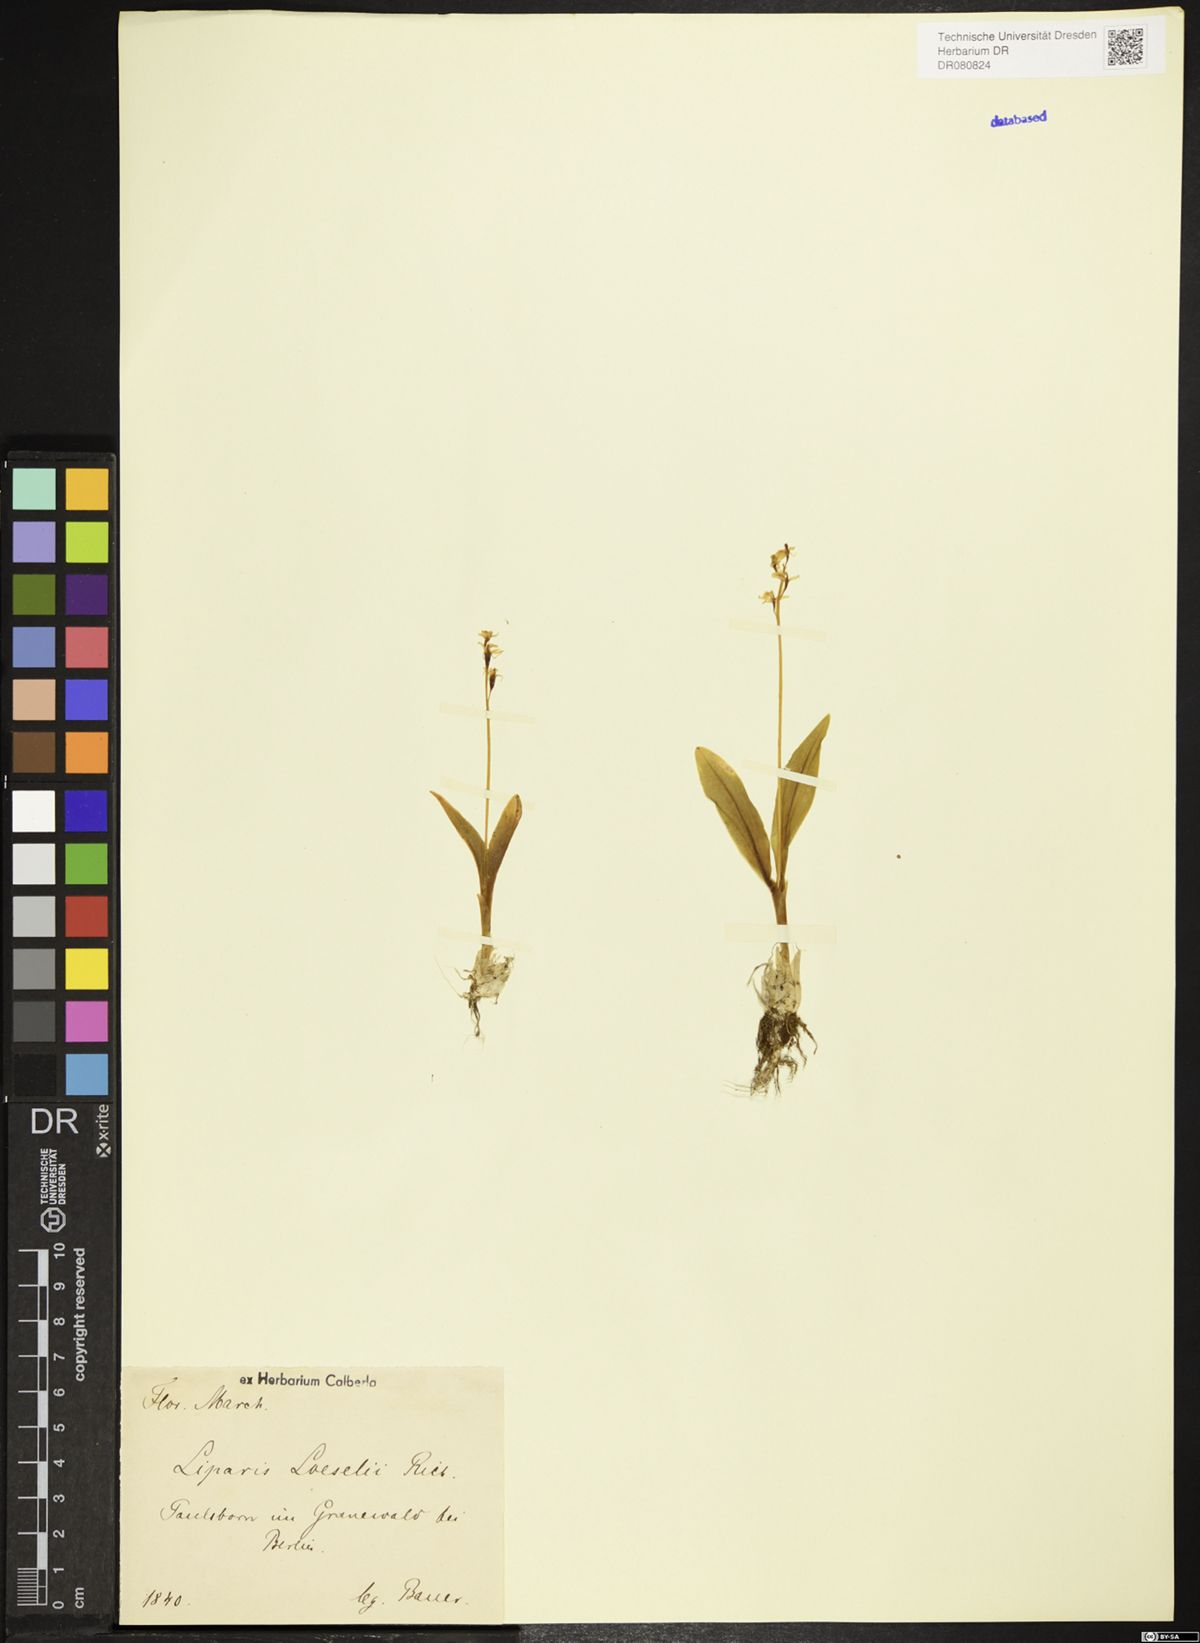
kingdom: Animalia
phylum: Arthropoda
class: Insecta
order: Coleoptera
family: Curculionidae
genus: Liparis
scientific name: Liparis loeselii
